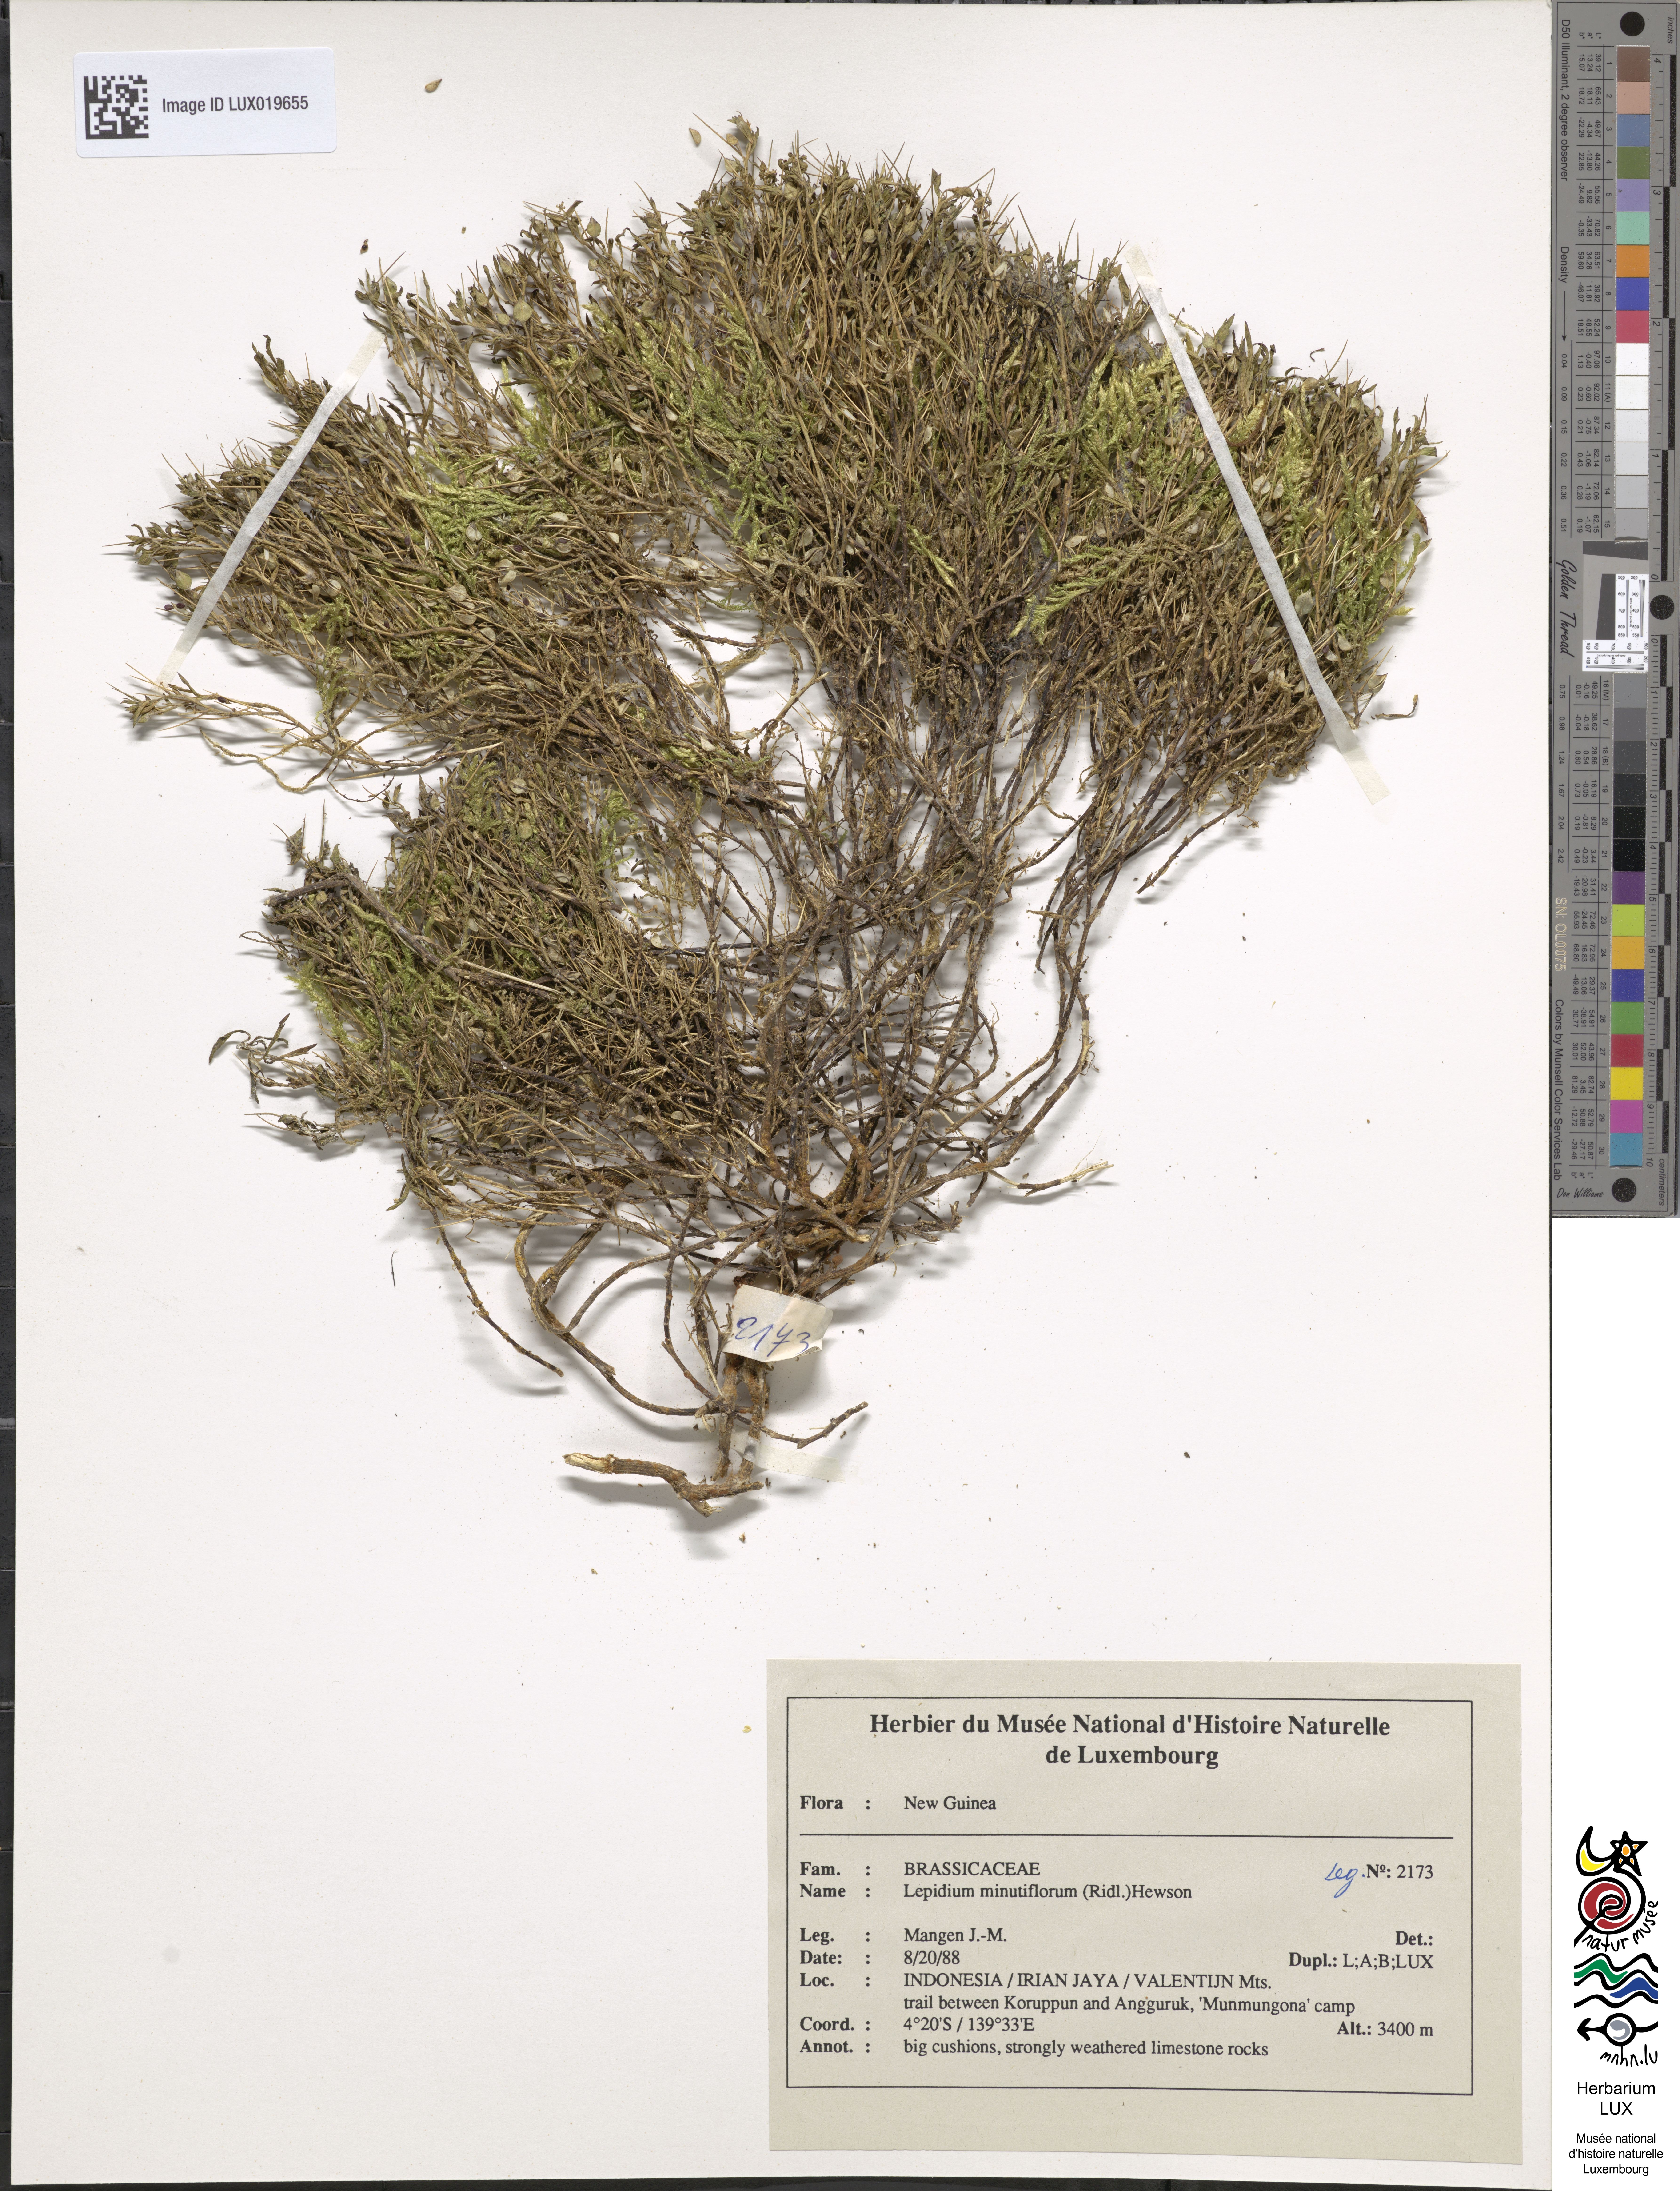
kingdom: Plantae
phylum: Tracheophyta
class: Magnoliopsida
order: Brassicales
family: Brassicaceae
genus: Lepidium
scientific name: Lepidium minutiflorum
